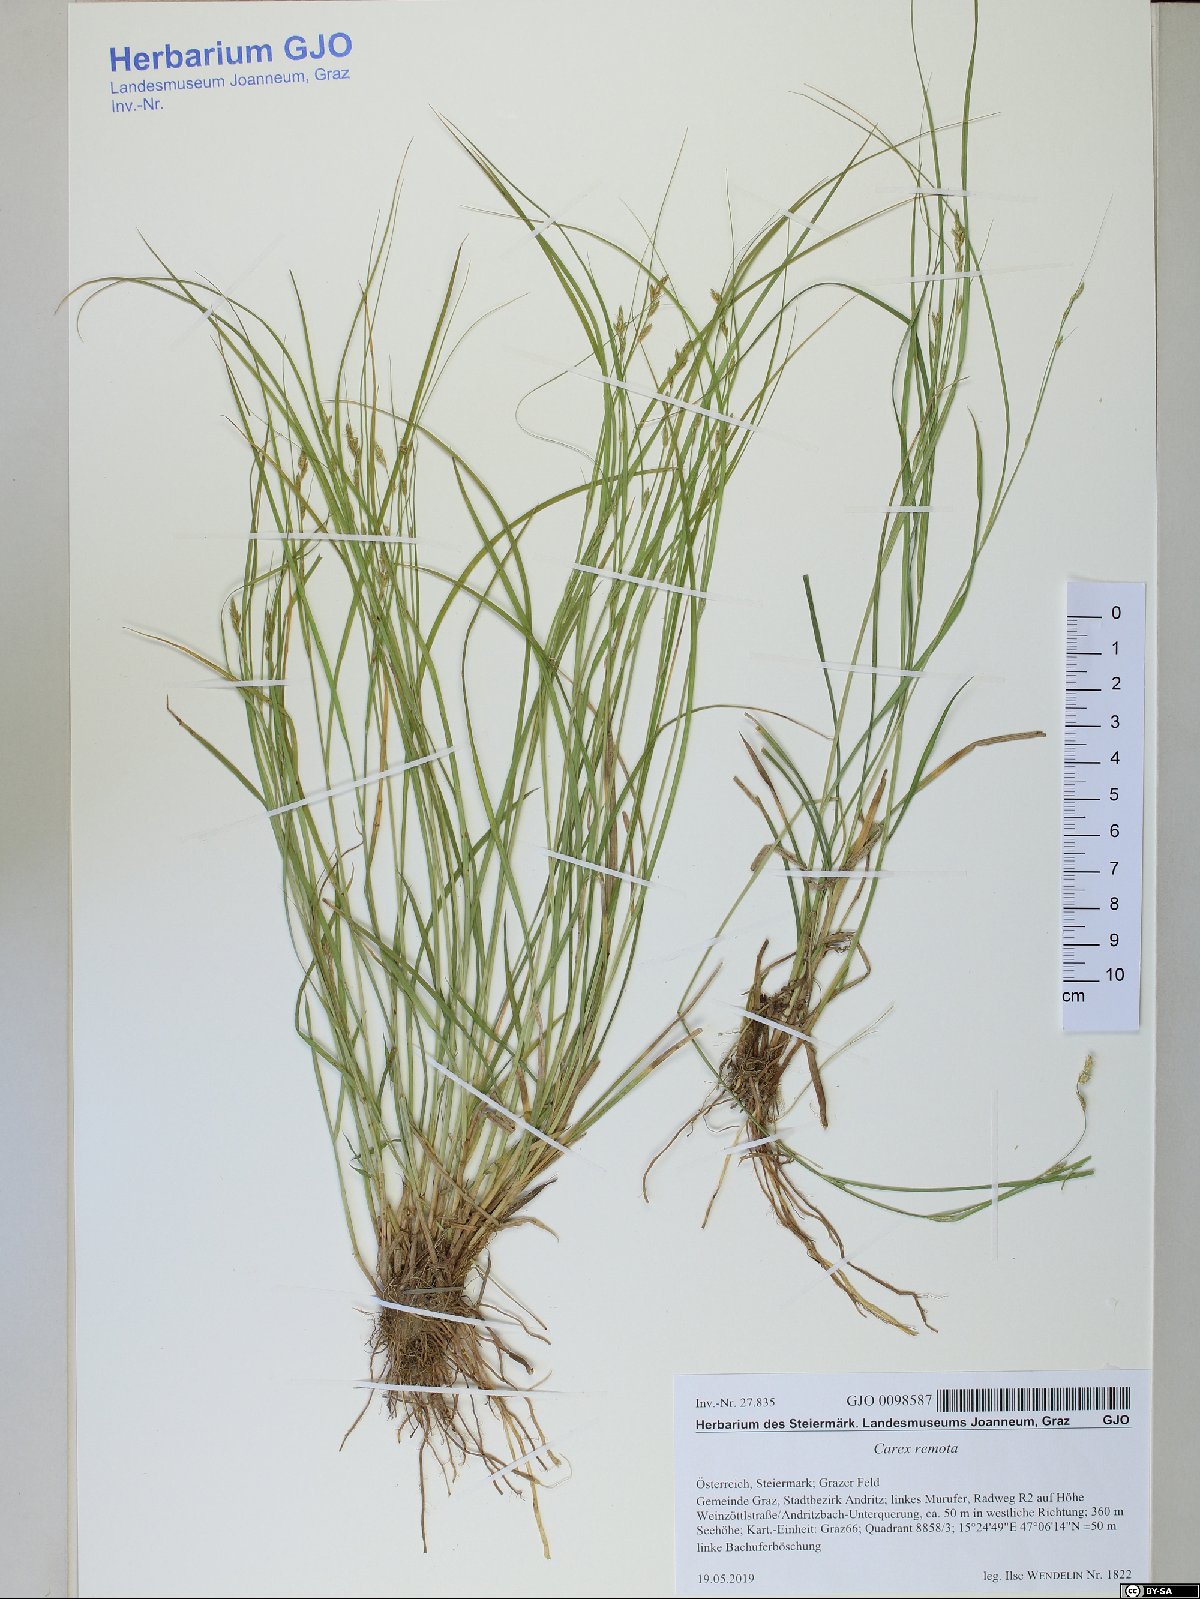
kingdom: Plantae
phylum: Tracheophyta
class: Liliopsida
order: Poales
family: Cyperaceae
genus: Carex
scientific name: Carex remota
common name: Remote sedge
